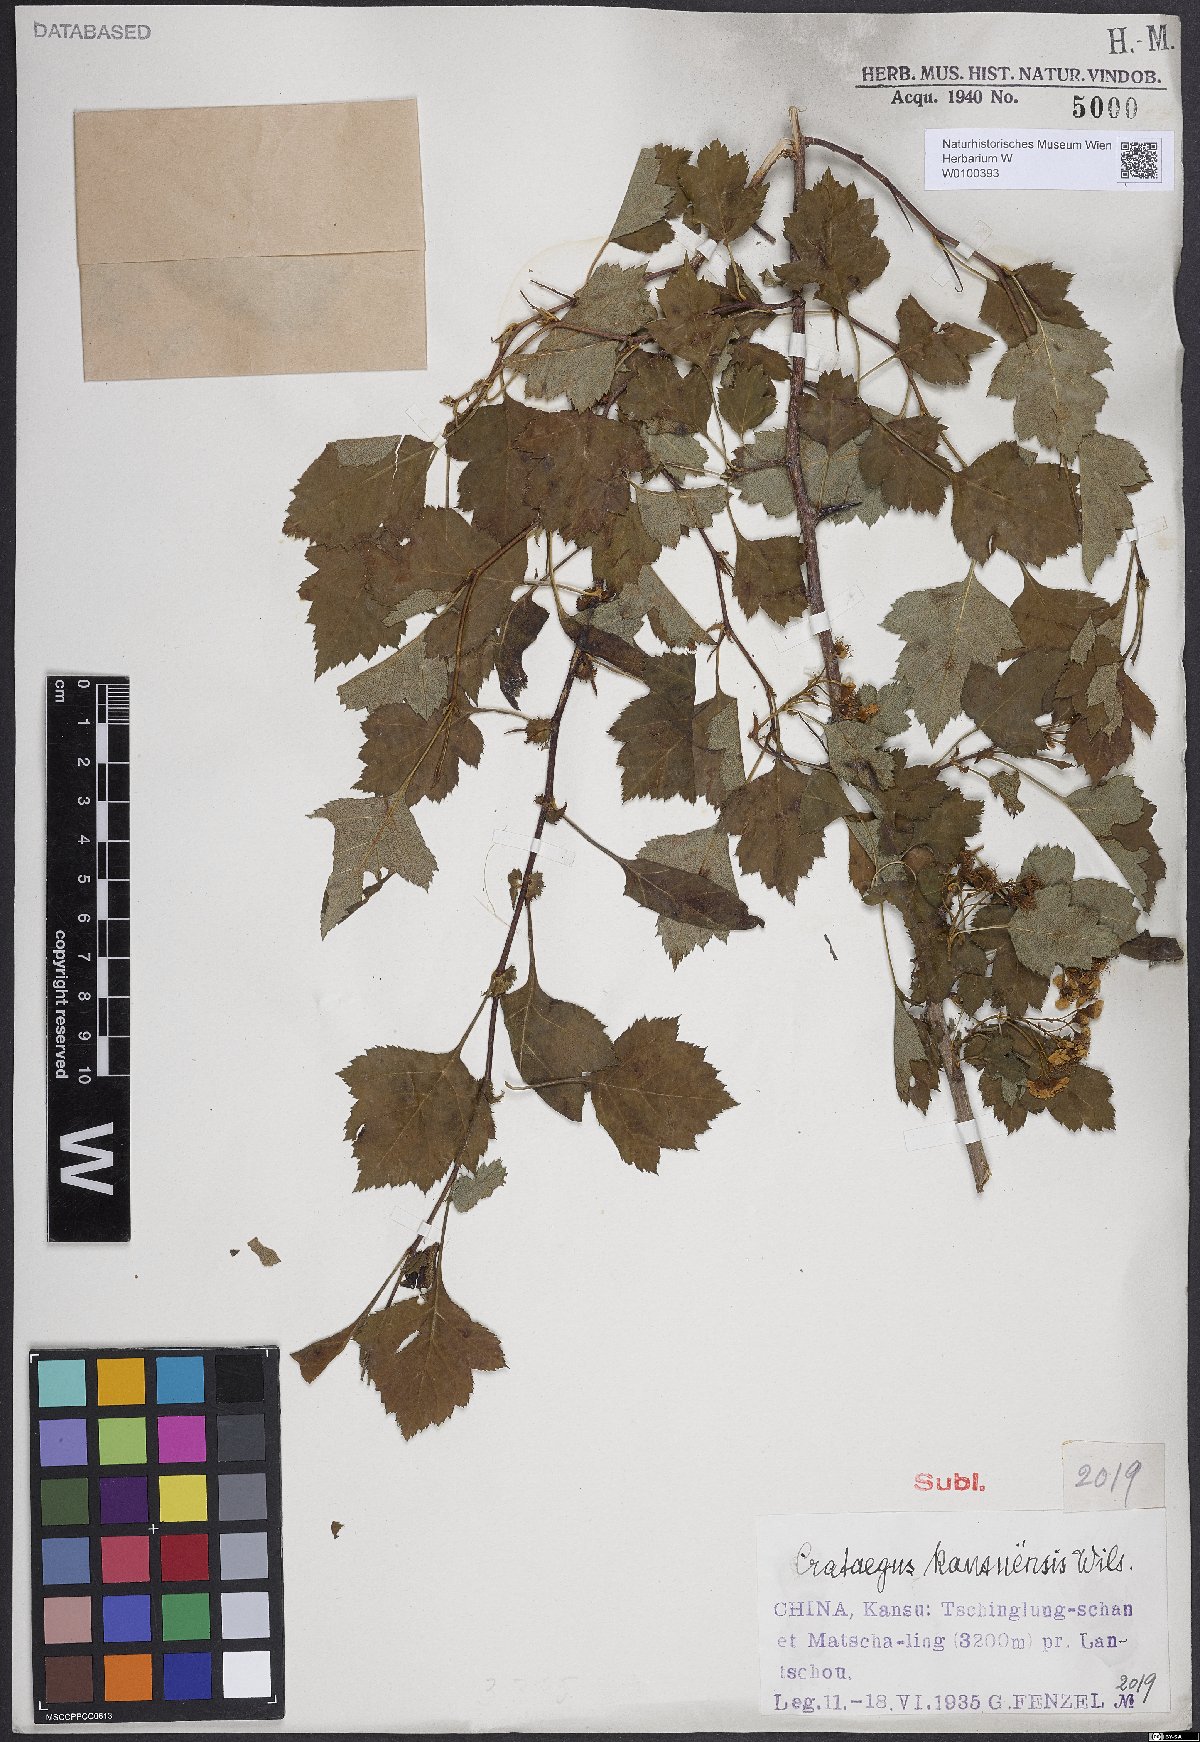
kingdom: Plantae
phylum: Tracheophyta
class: Magnoliopsida
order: Rosales
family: Rosaceae
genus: Crataegus
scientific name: Crataegus kansuensis
